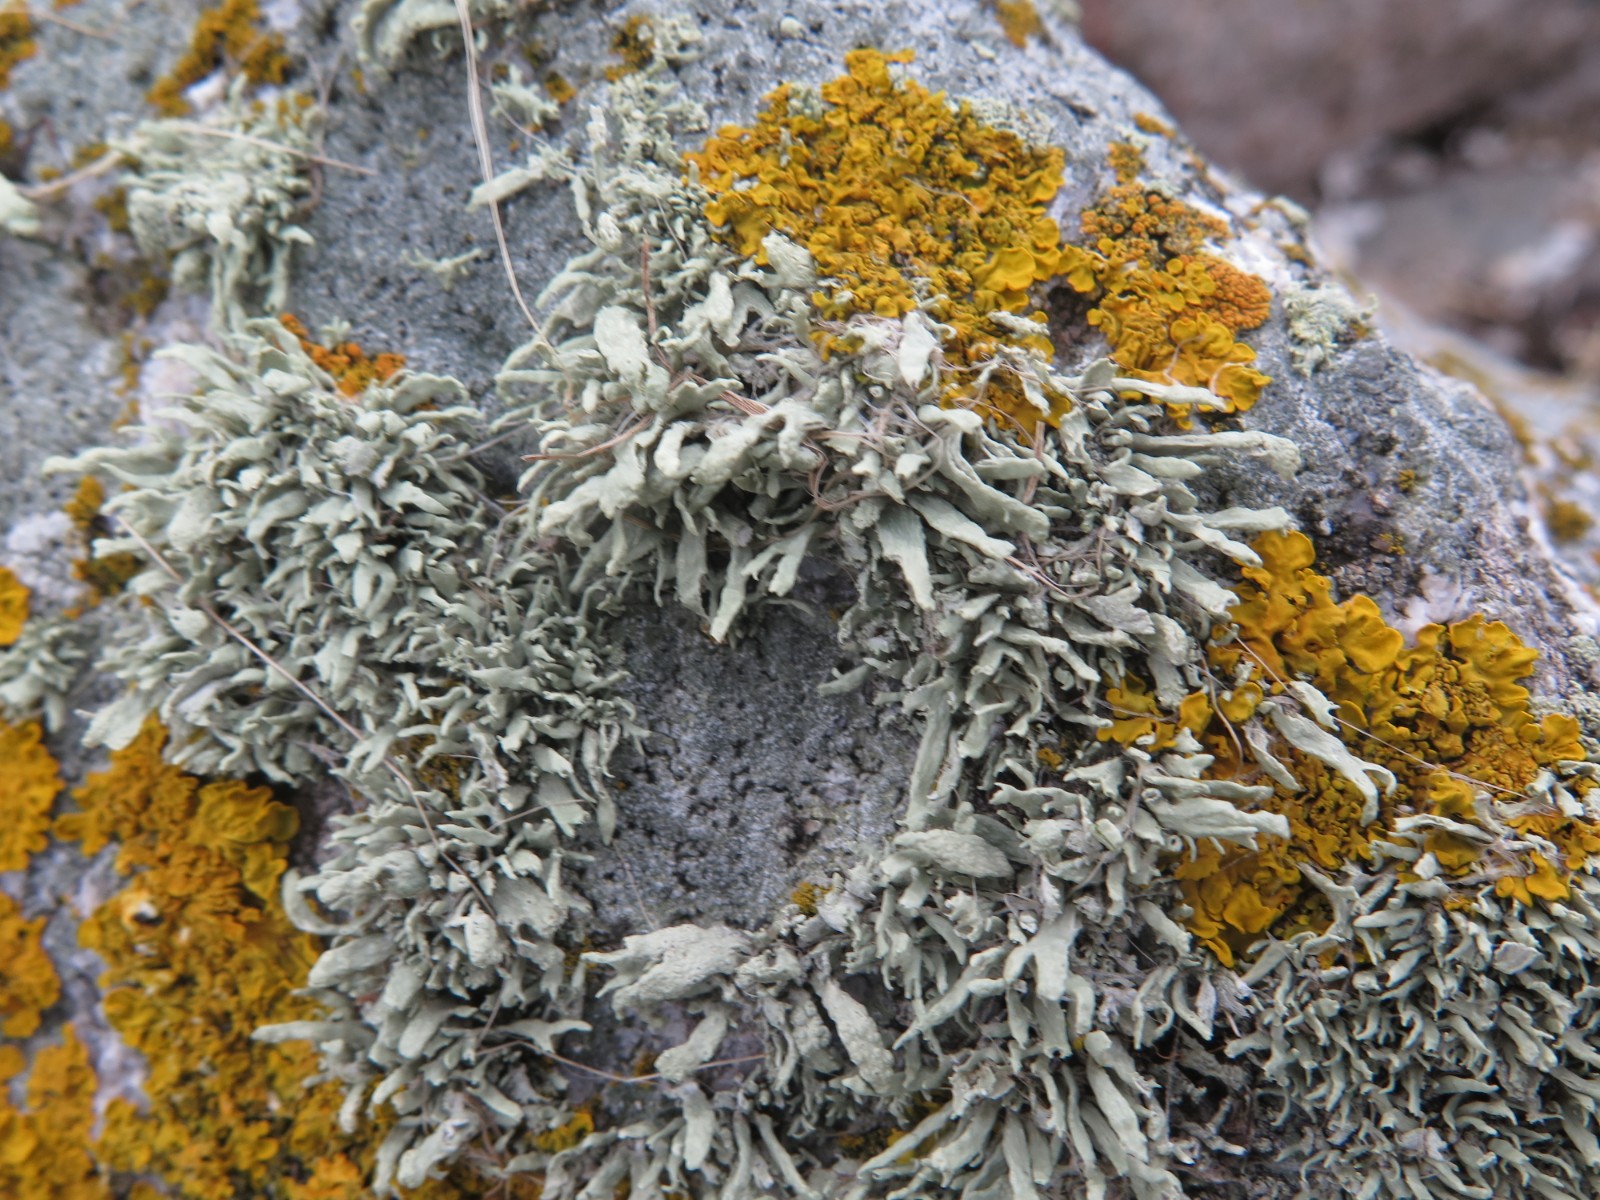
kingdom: Fungi
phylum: Ascomycota
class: Lecanoromycetes
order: Lecanorales
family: Ramalinaceae
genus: Ramalina
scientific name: Ramalina siliquosa
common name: klippe-grenlav
